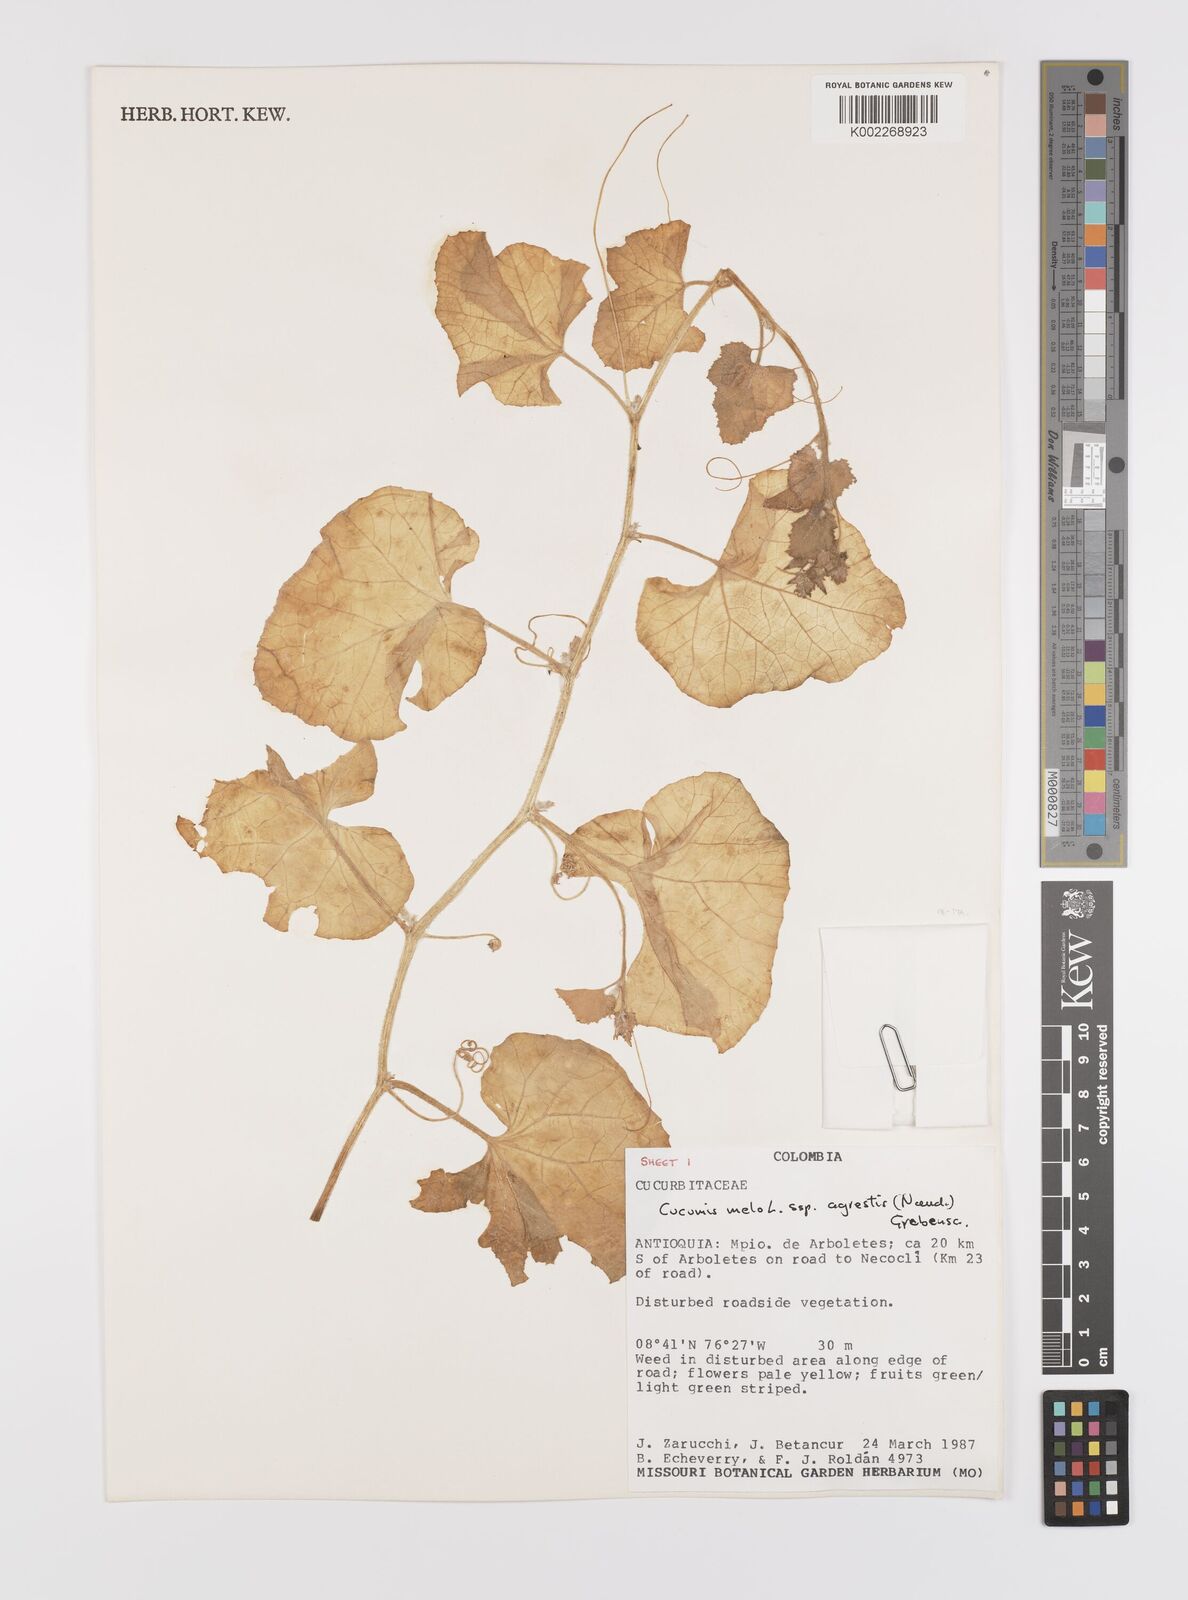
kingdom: Plantae
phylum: Tracheophyta
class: Magnoliopsida
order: Cucurbitales
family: Cucurbitaceae
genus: Cucumis
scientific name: Cucumis melo
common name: Melon
